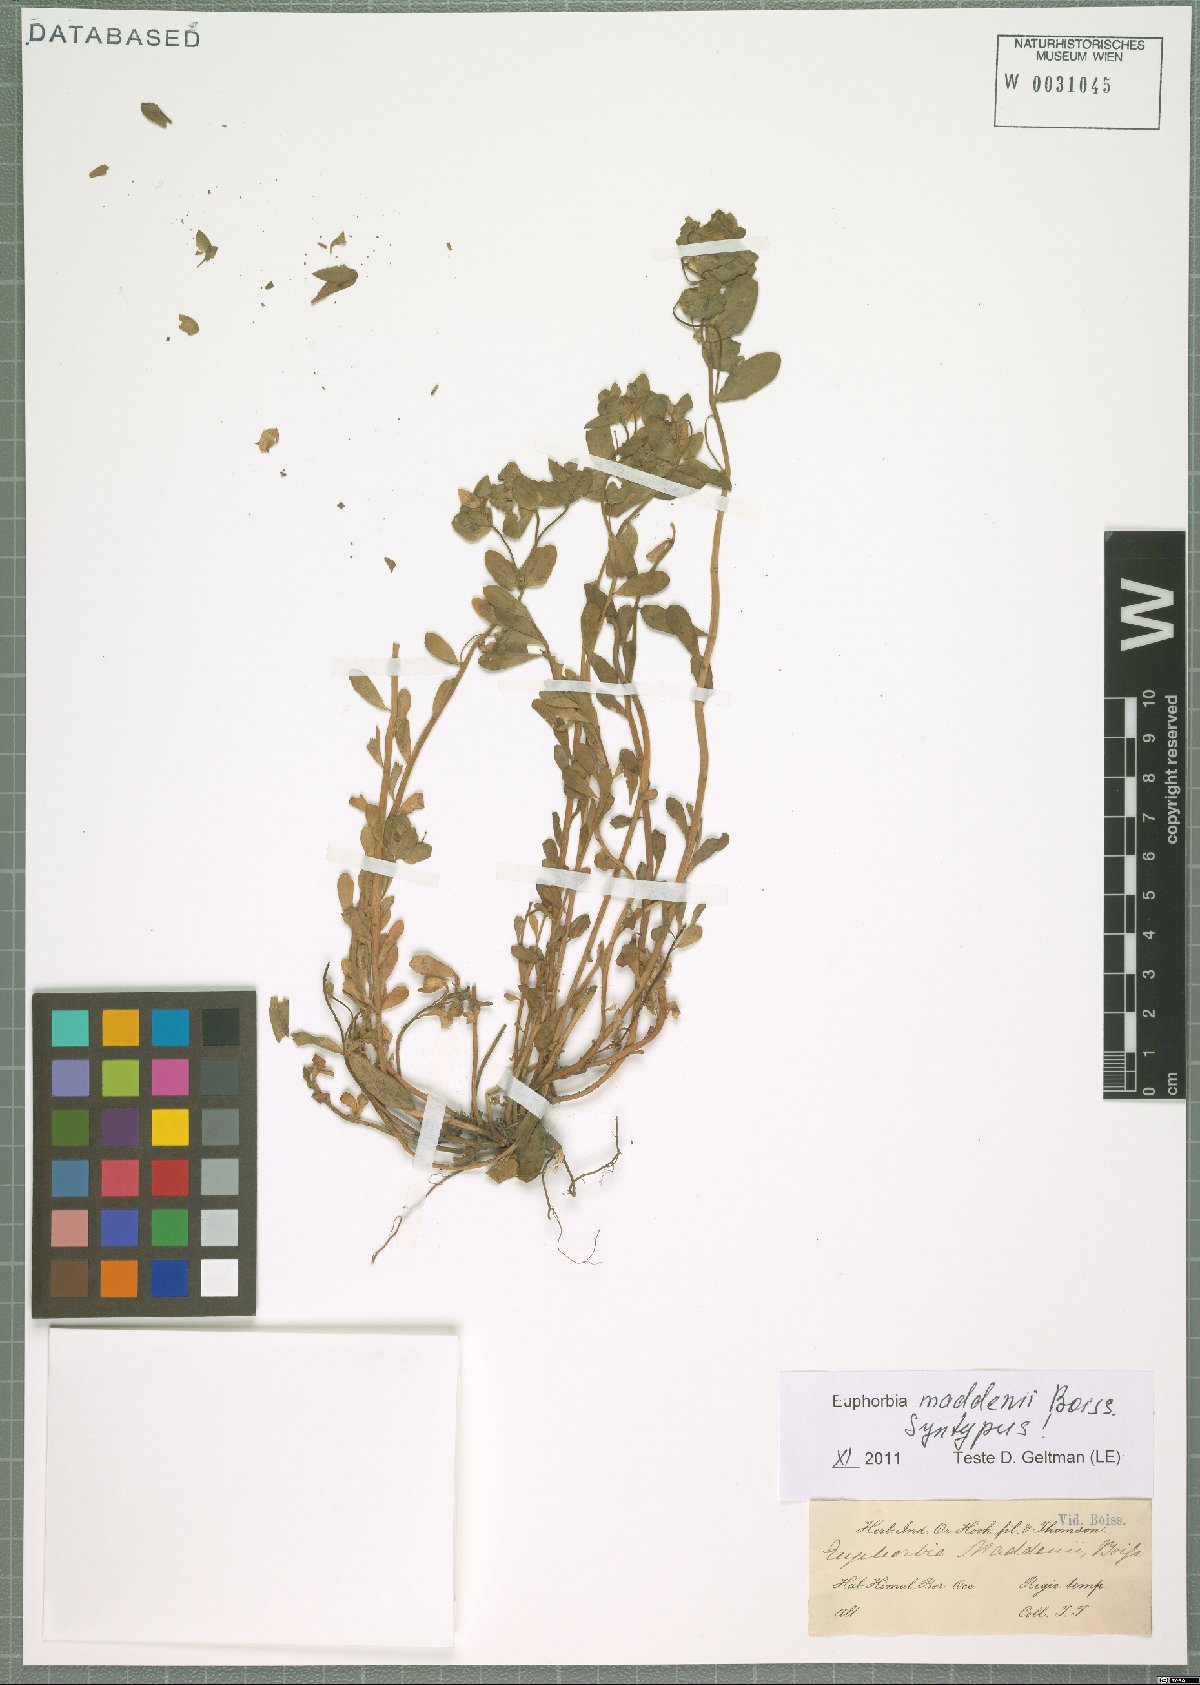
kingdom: Plantae
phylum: Tracheophyta
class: Magnoliopsida
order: Malpighiales
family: Euphorbiaceae
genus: Euphorbia
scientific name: Euphorbia maddenii
